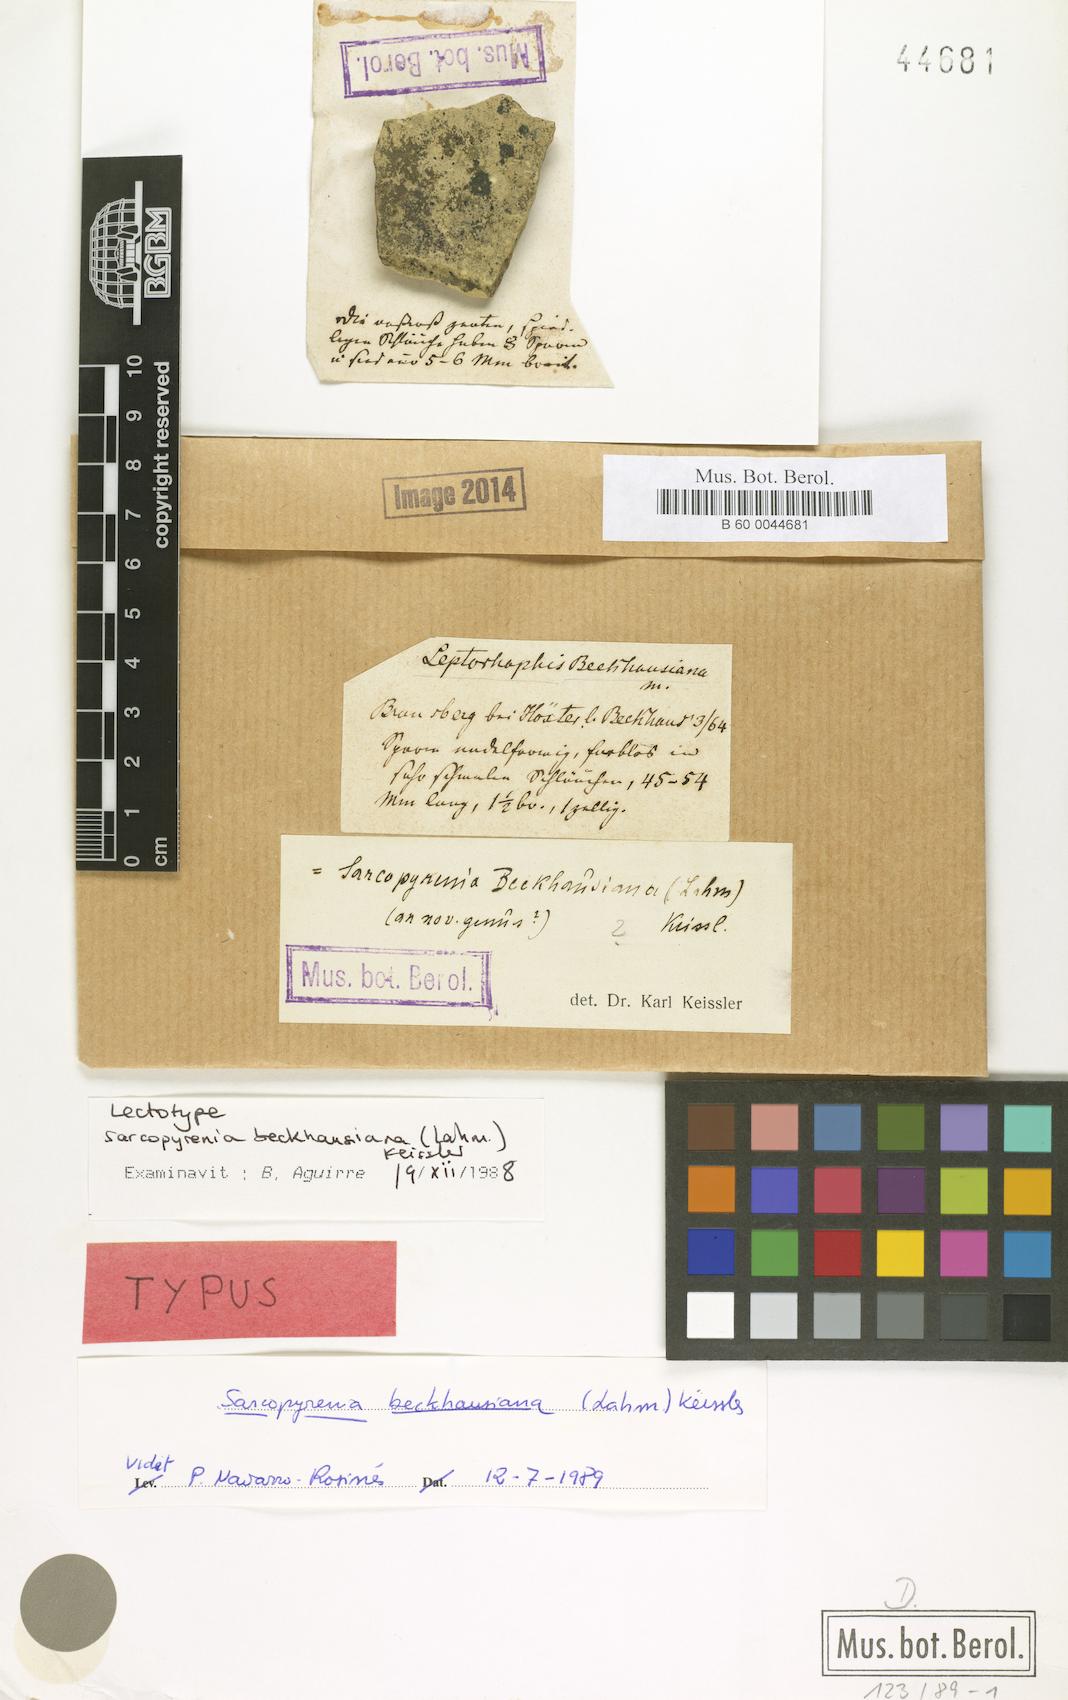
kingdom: Fungi
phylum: Ascomycota
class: Sordariomycetes
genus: Sarcopyrenia
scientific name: Sarcopyrenia beckhausiana
